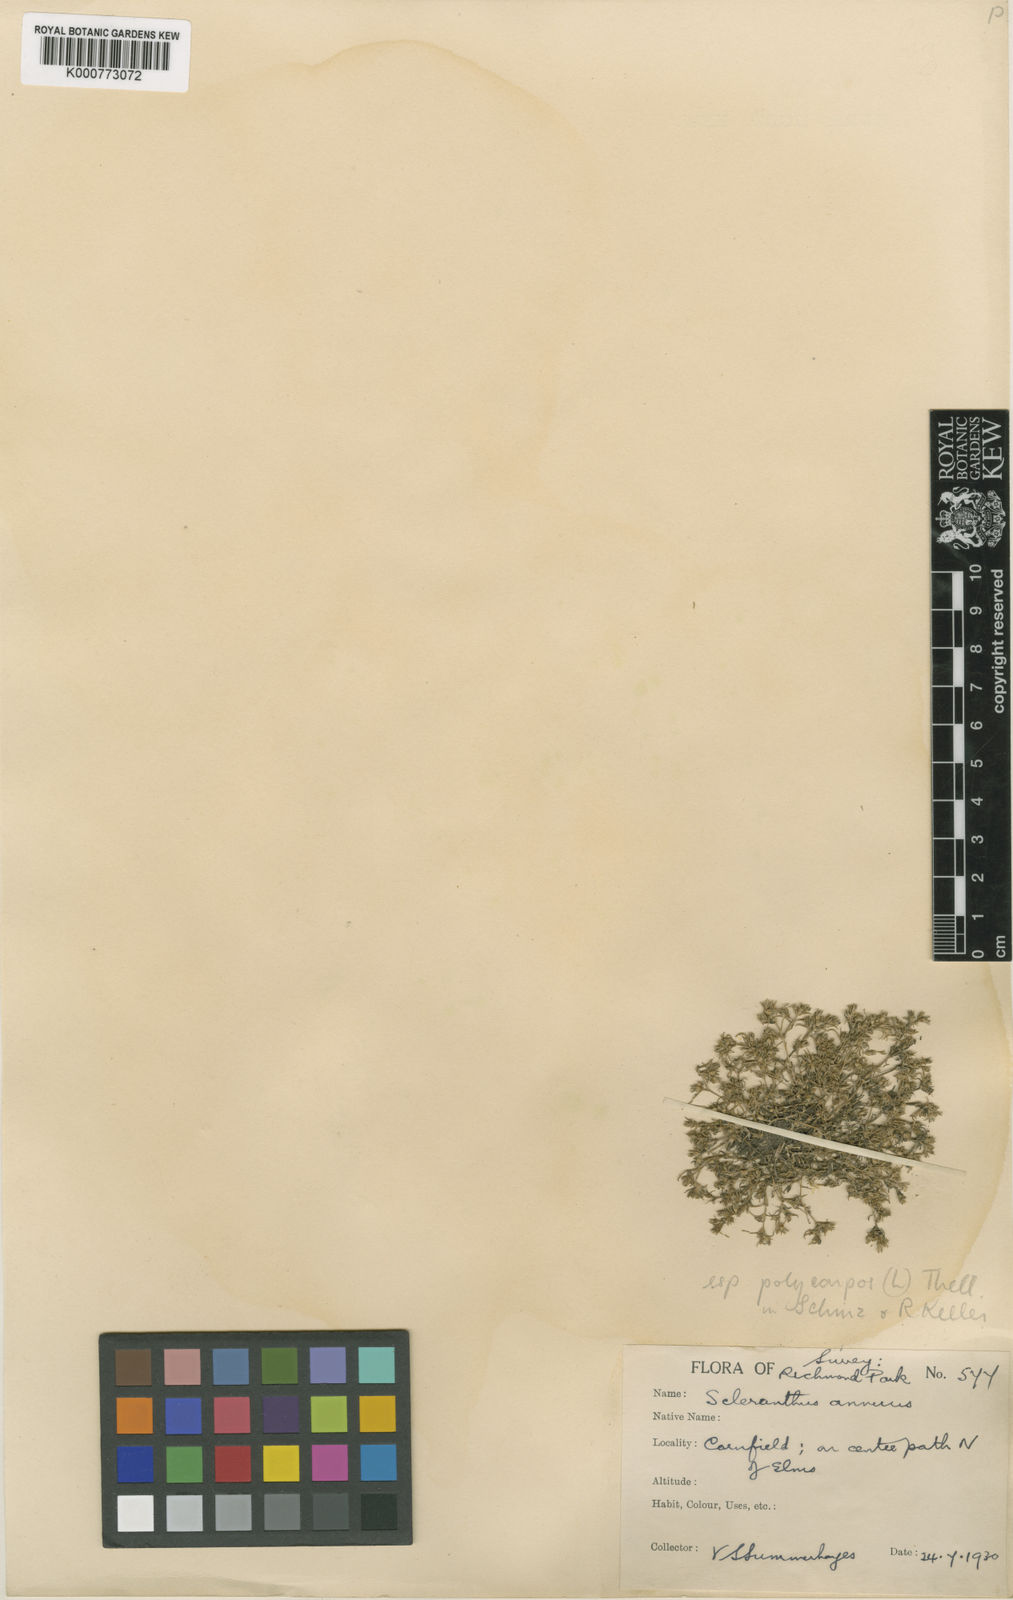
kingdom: Plantae
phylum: Tracheophyta
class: Magnoliopsida
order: Caryophyllales
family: Caryophyllaceae
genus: Scleranthus
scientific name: Scleranthus annuus
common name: Annual knawel
